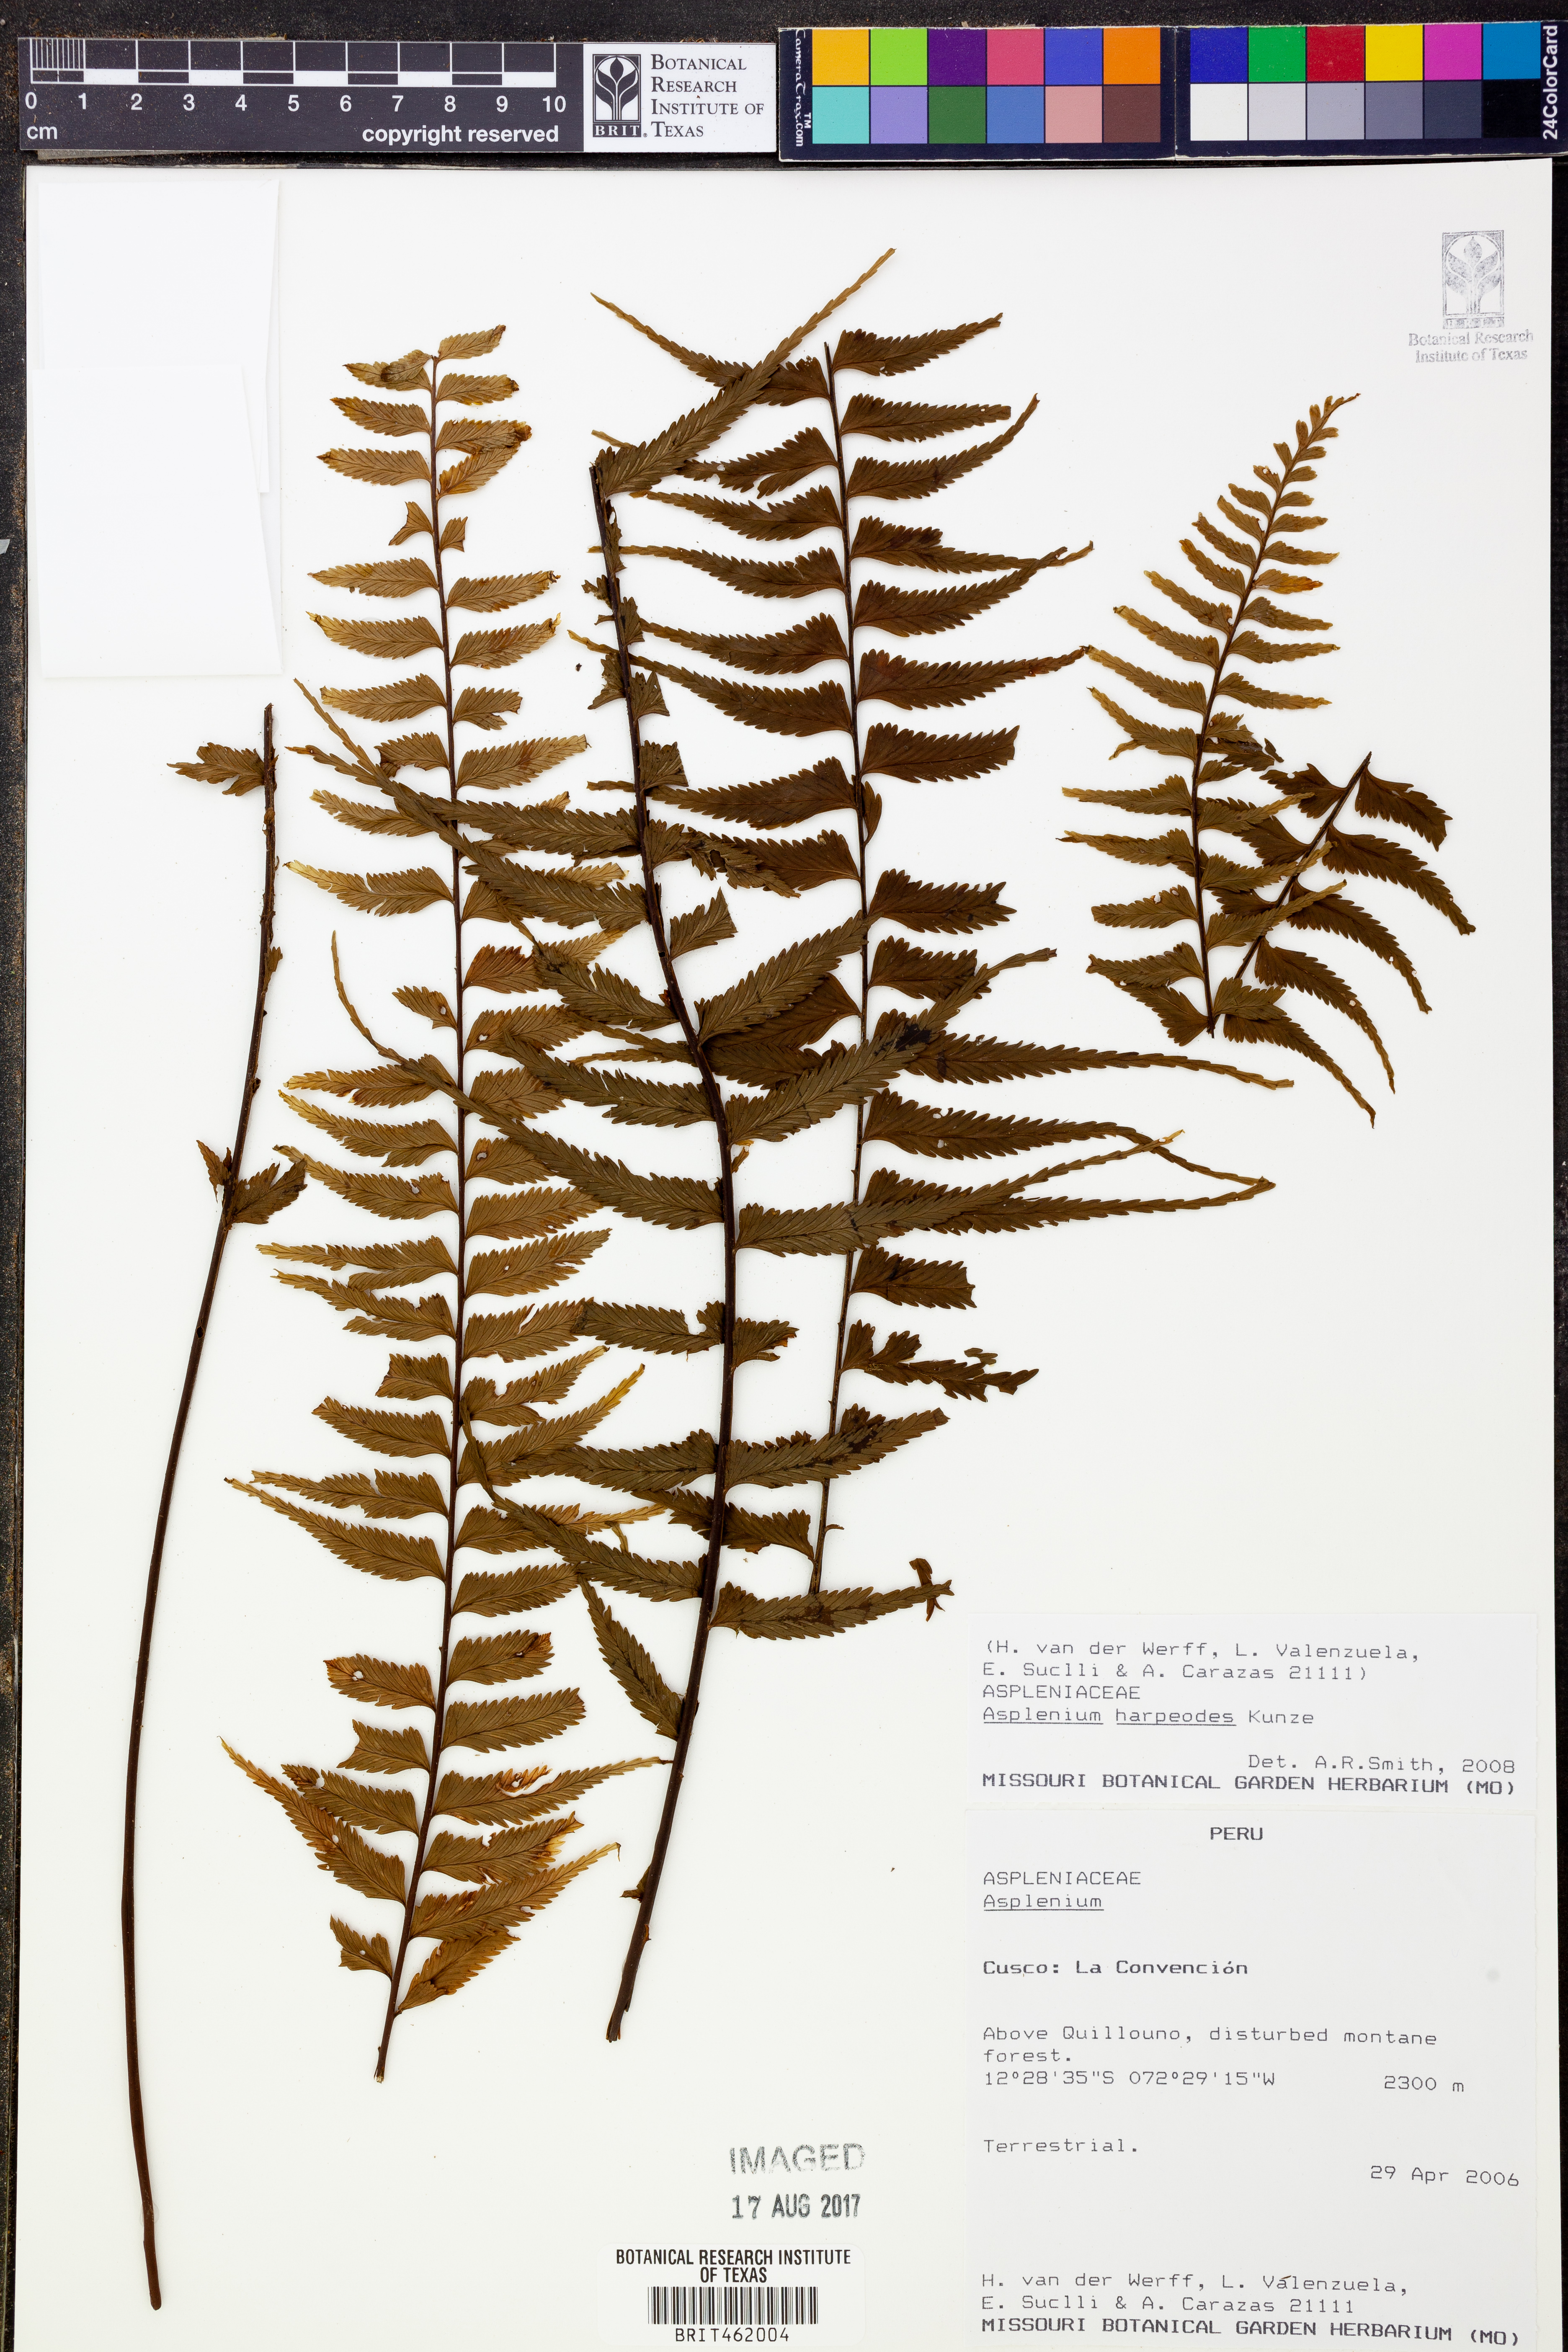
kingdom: Plantae
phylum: Tracheophyta
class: Polypodiopsida
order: Polypodiales
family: Aspleniaceae
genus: Asplenium
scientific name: Asplenium harpeodes
